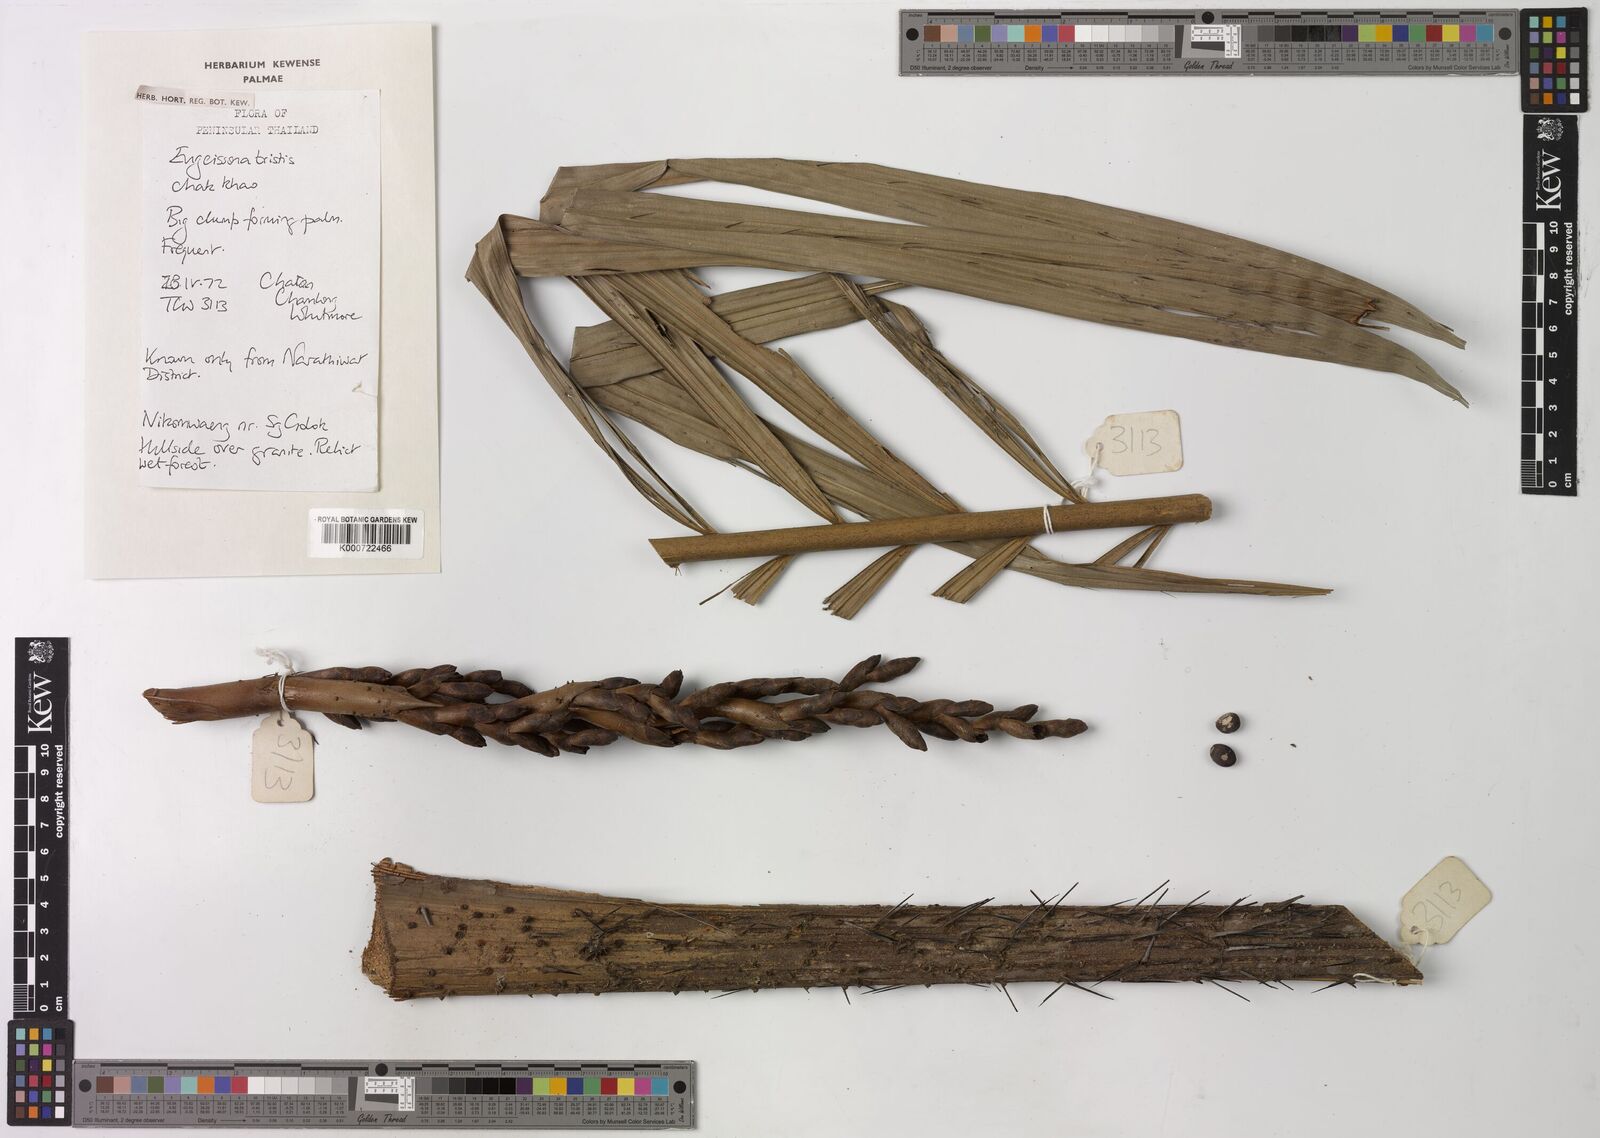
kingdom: Plantae
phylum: Tracheophyta
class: Liliopsida
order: Arecales
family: Arecaceae
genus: Eugeissona
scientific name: Eugeissona tristis
